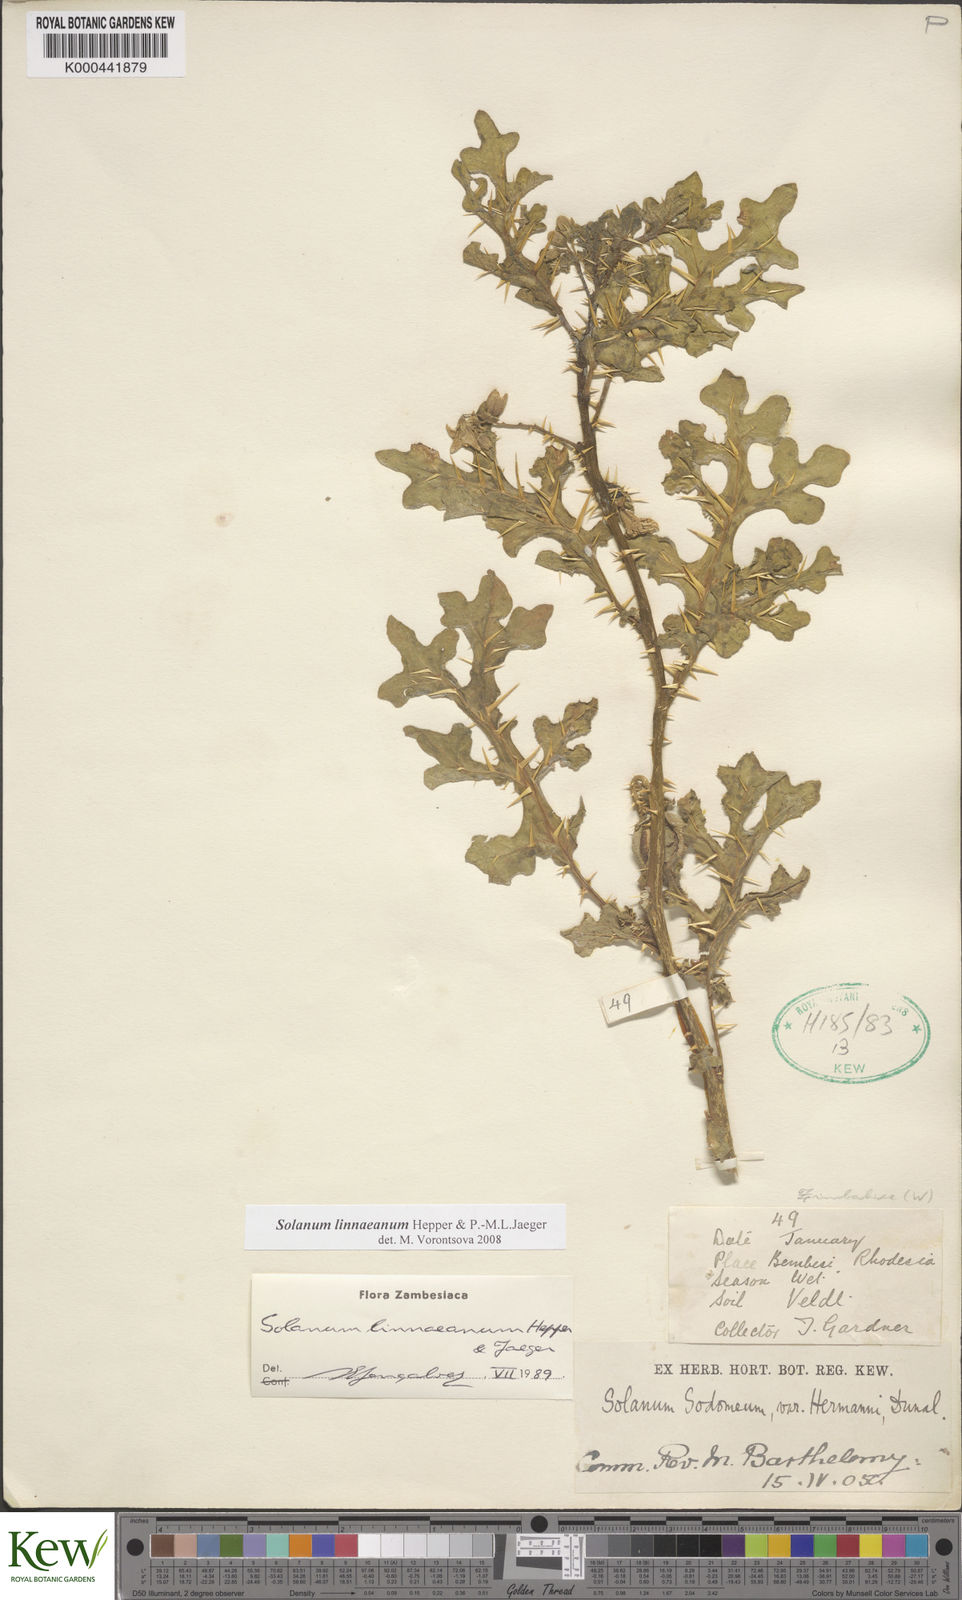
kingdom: Plantae
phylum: Tracheophyta
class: Magnoliopsida
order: Solanales
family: Solanaceae
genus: Solanum
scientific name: Solanum linnaeanum
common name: Nightshade
